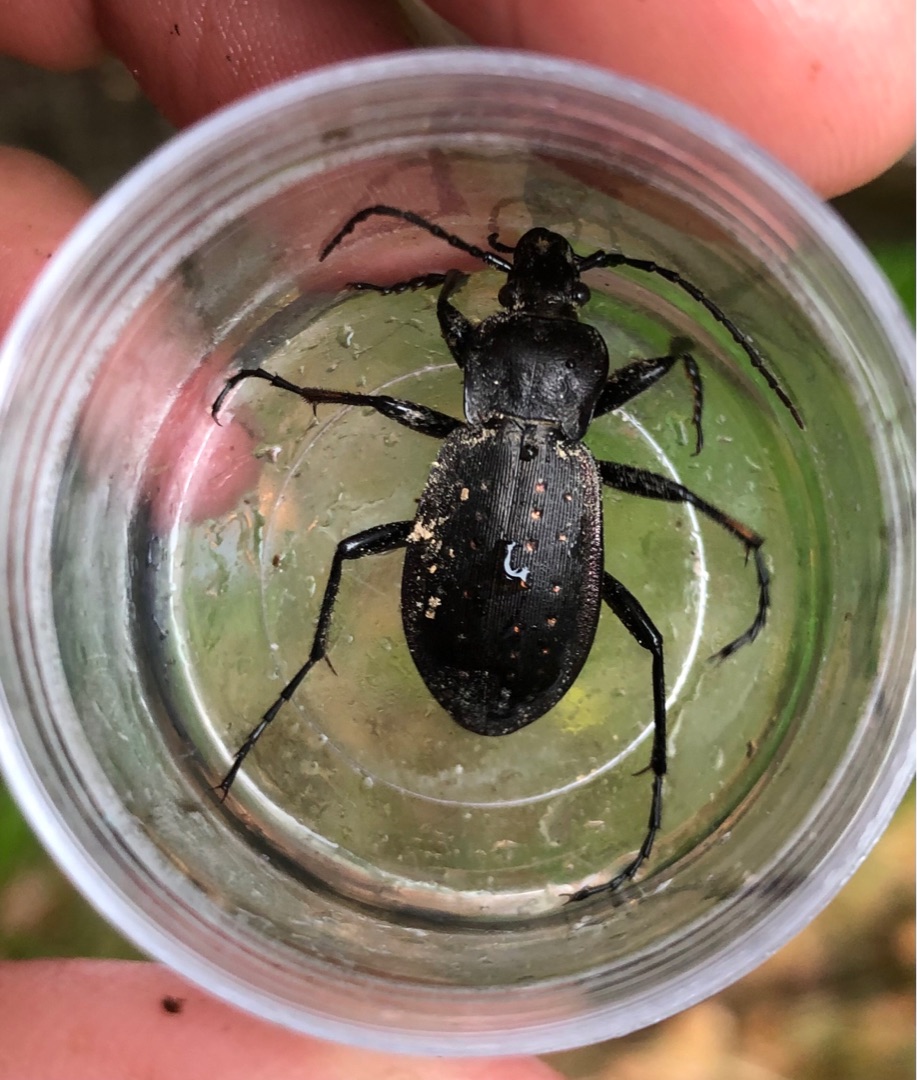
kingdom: Animalia
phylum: Arthropoda
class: Insecta
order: Coleoptera
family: Carabidae
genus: Carabus
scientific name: Carabus hortensis
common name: Guldpletløber
